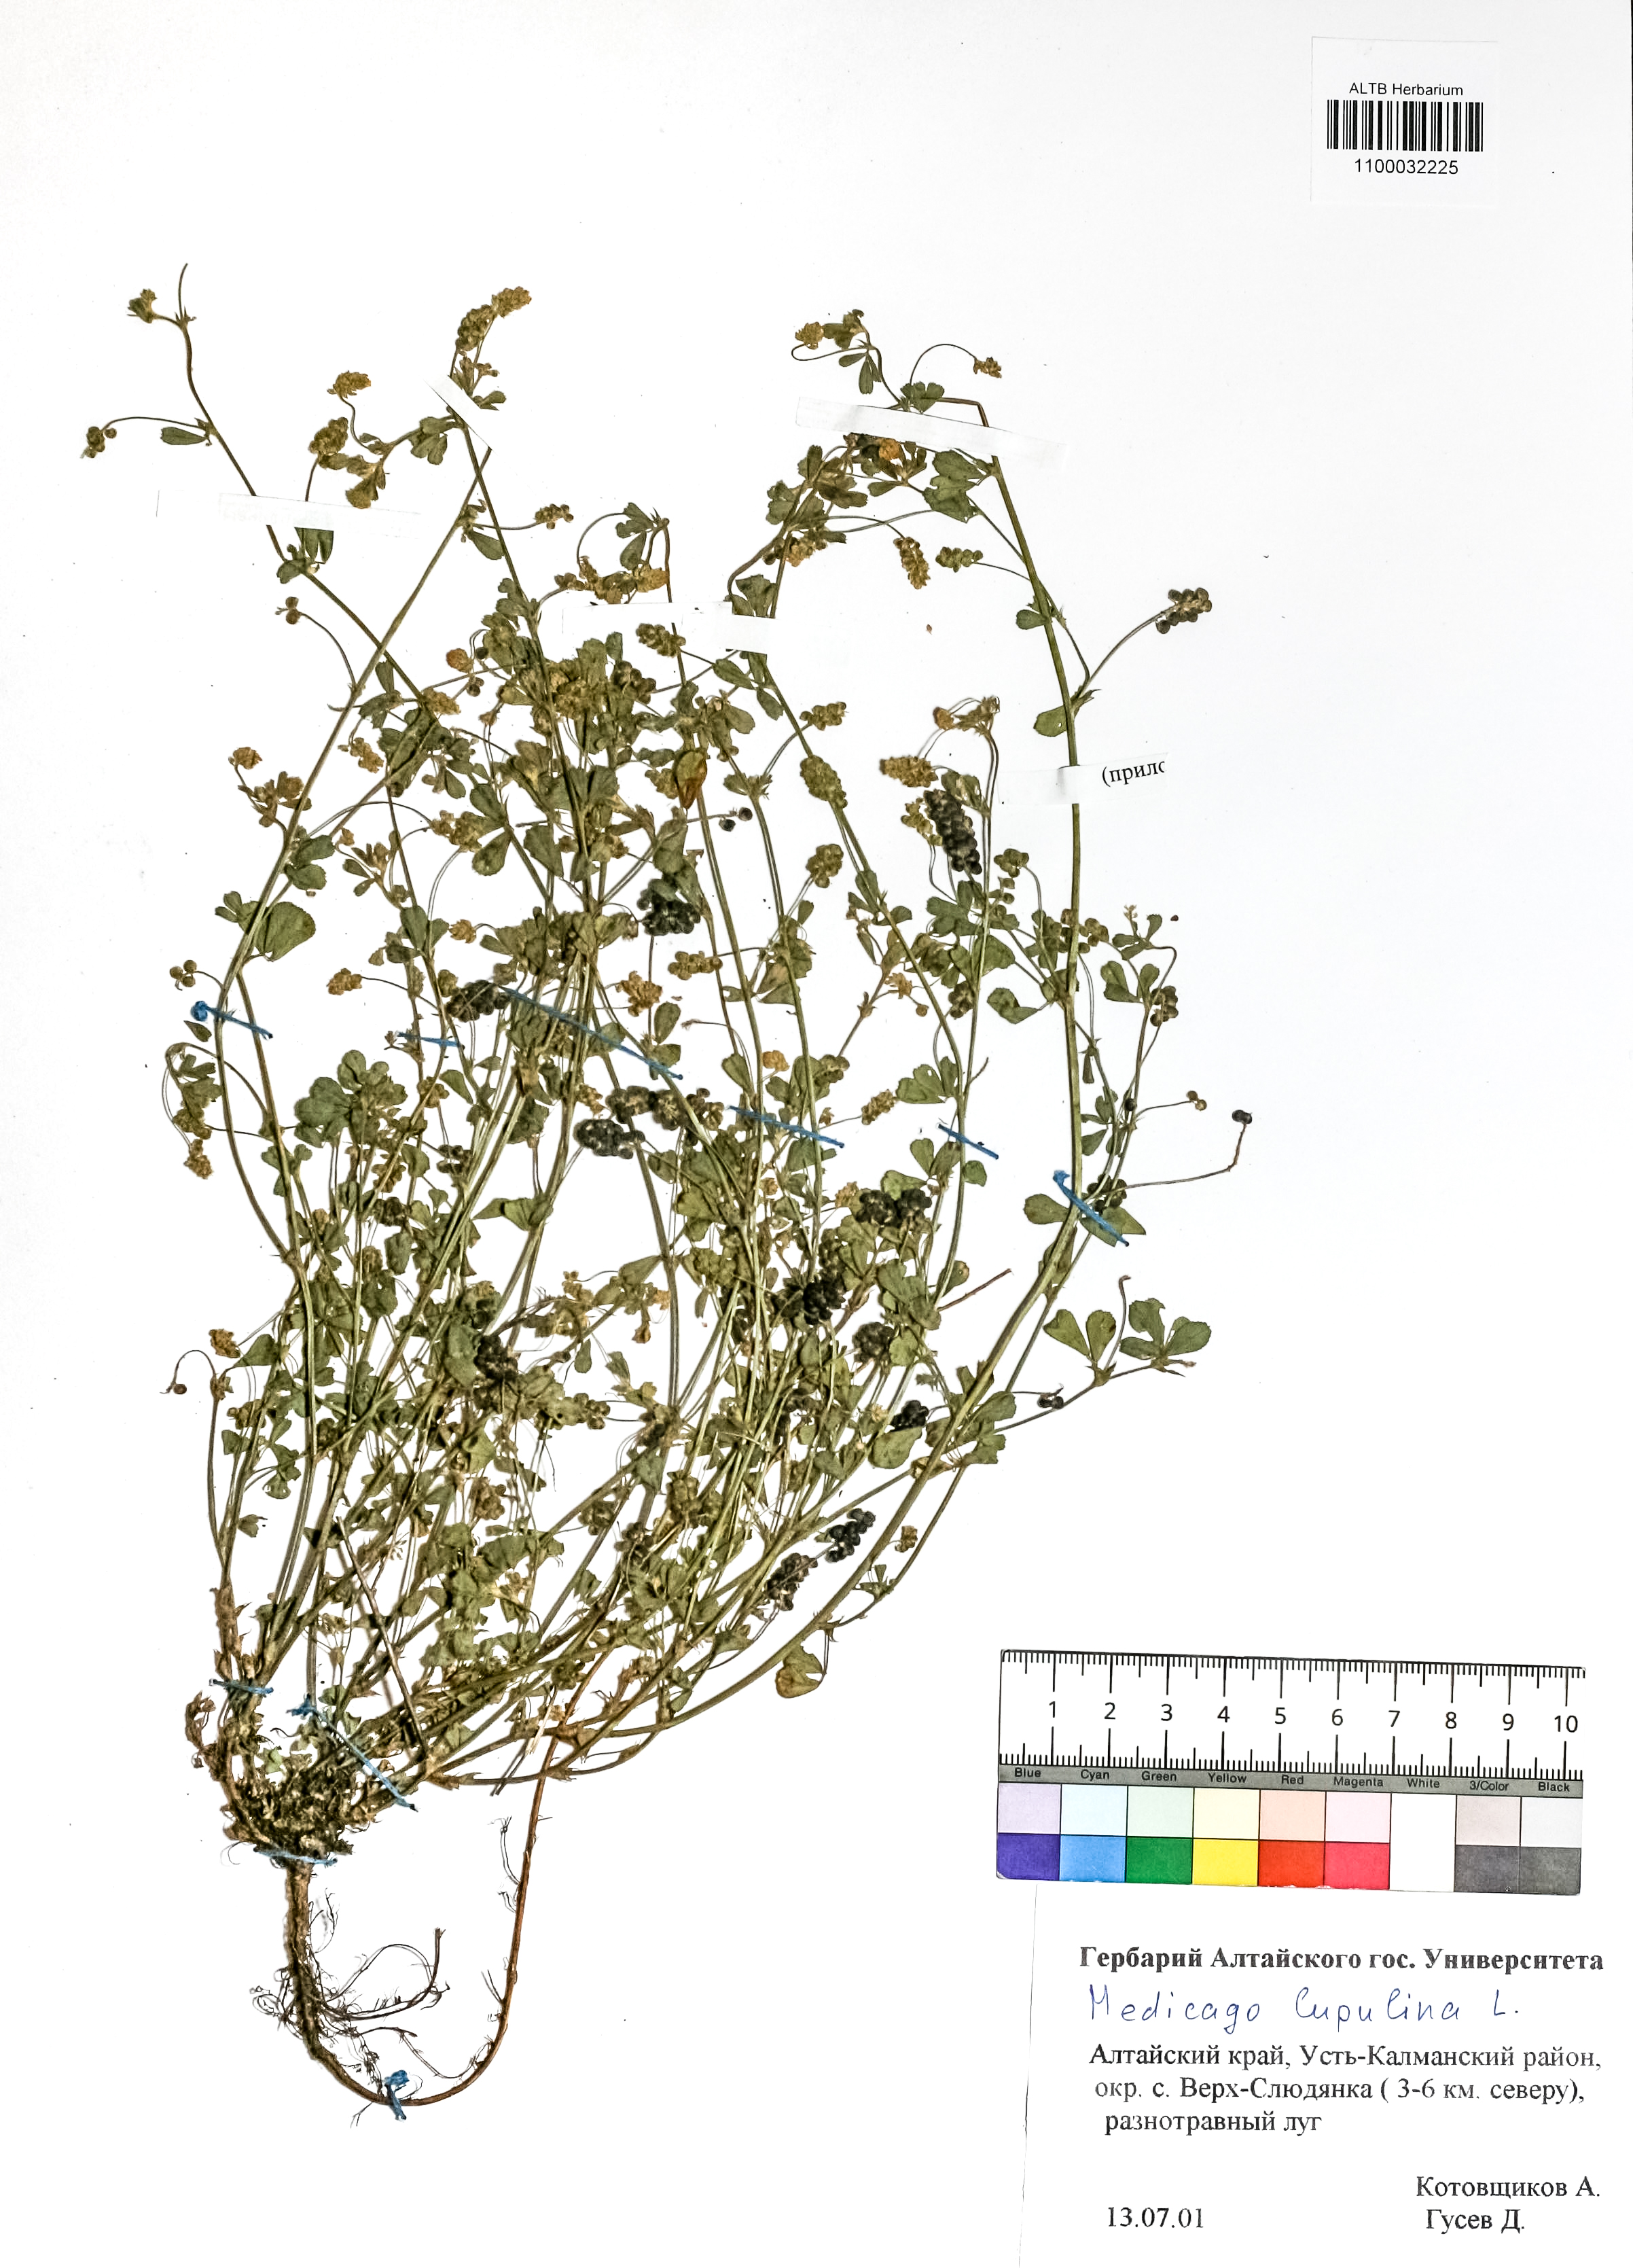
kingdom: Plantae
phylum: Tracheophyta
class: Magnoliopsida
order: Fabales
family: Fabaceae
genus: Medicago
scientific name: Medicago lupulina
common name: Black medick
